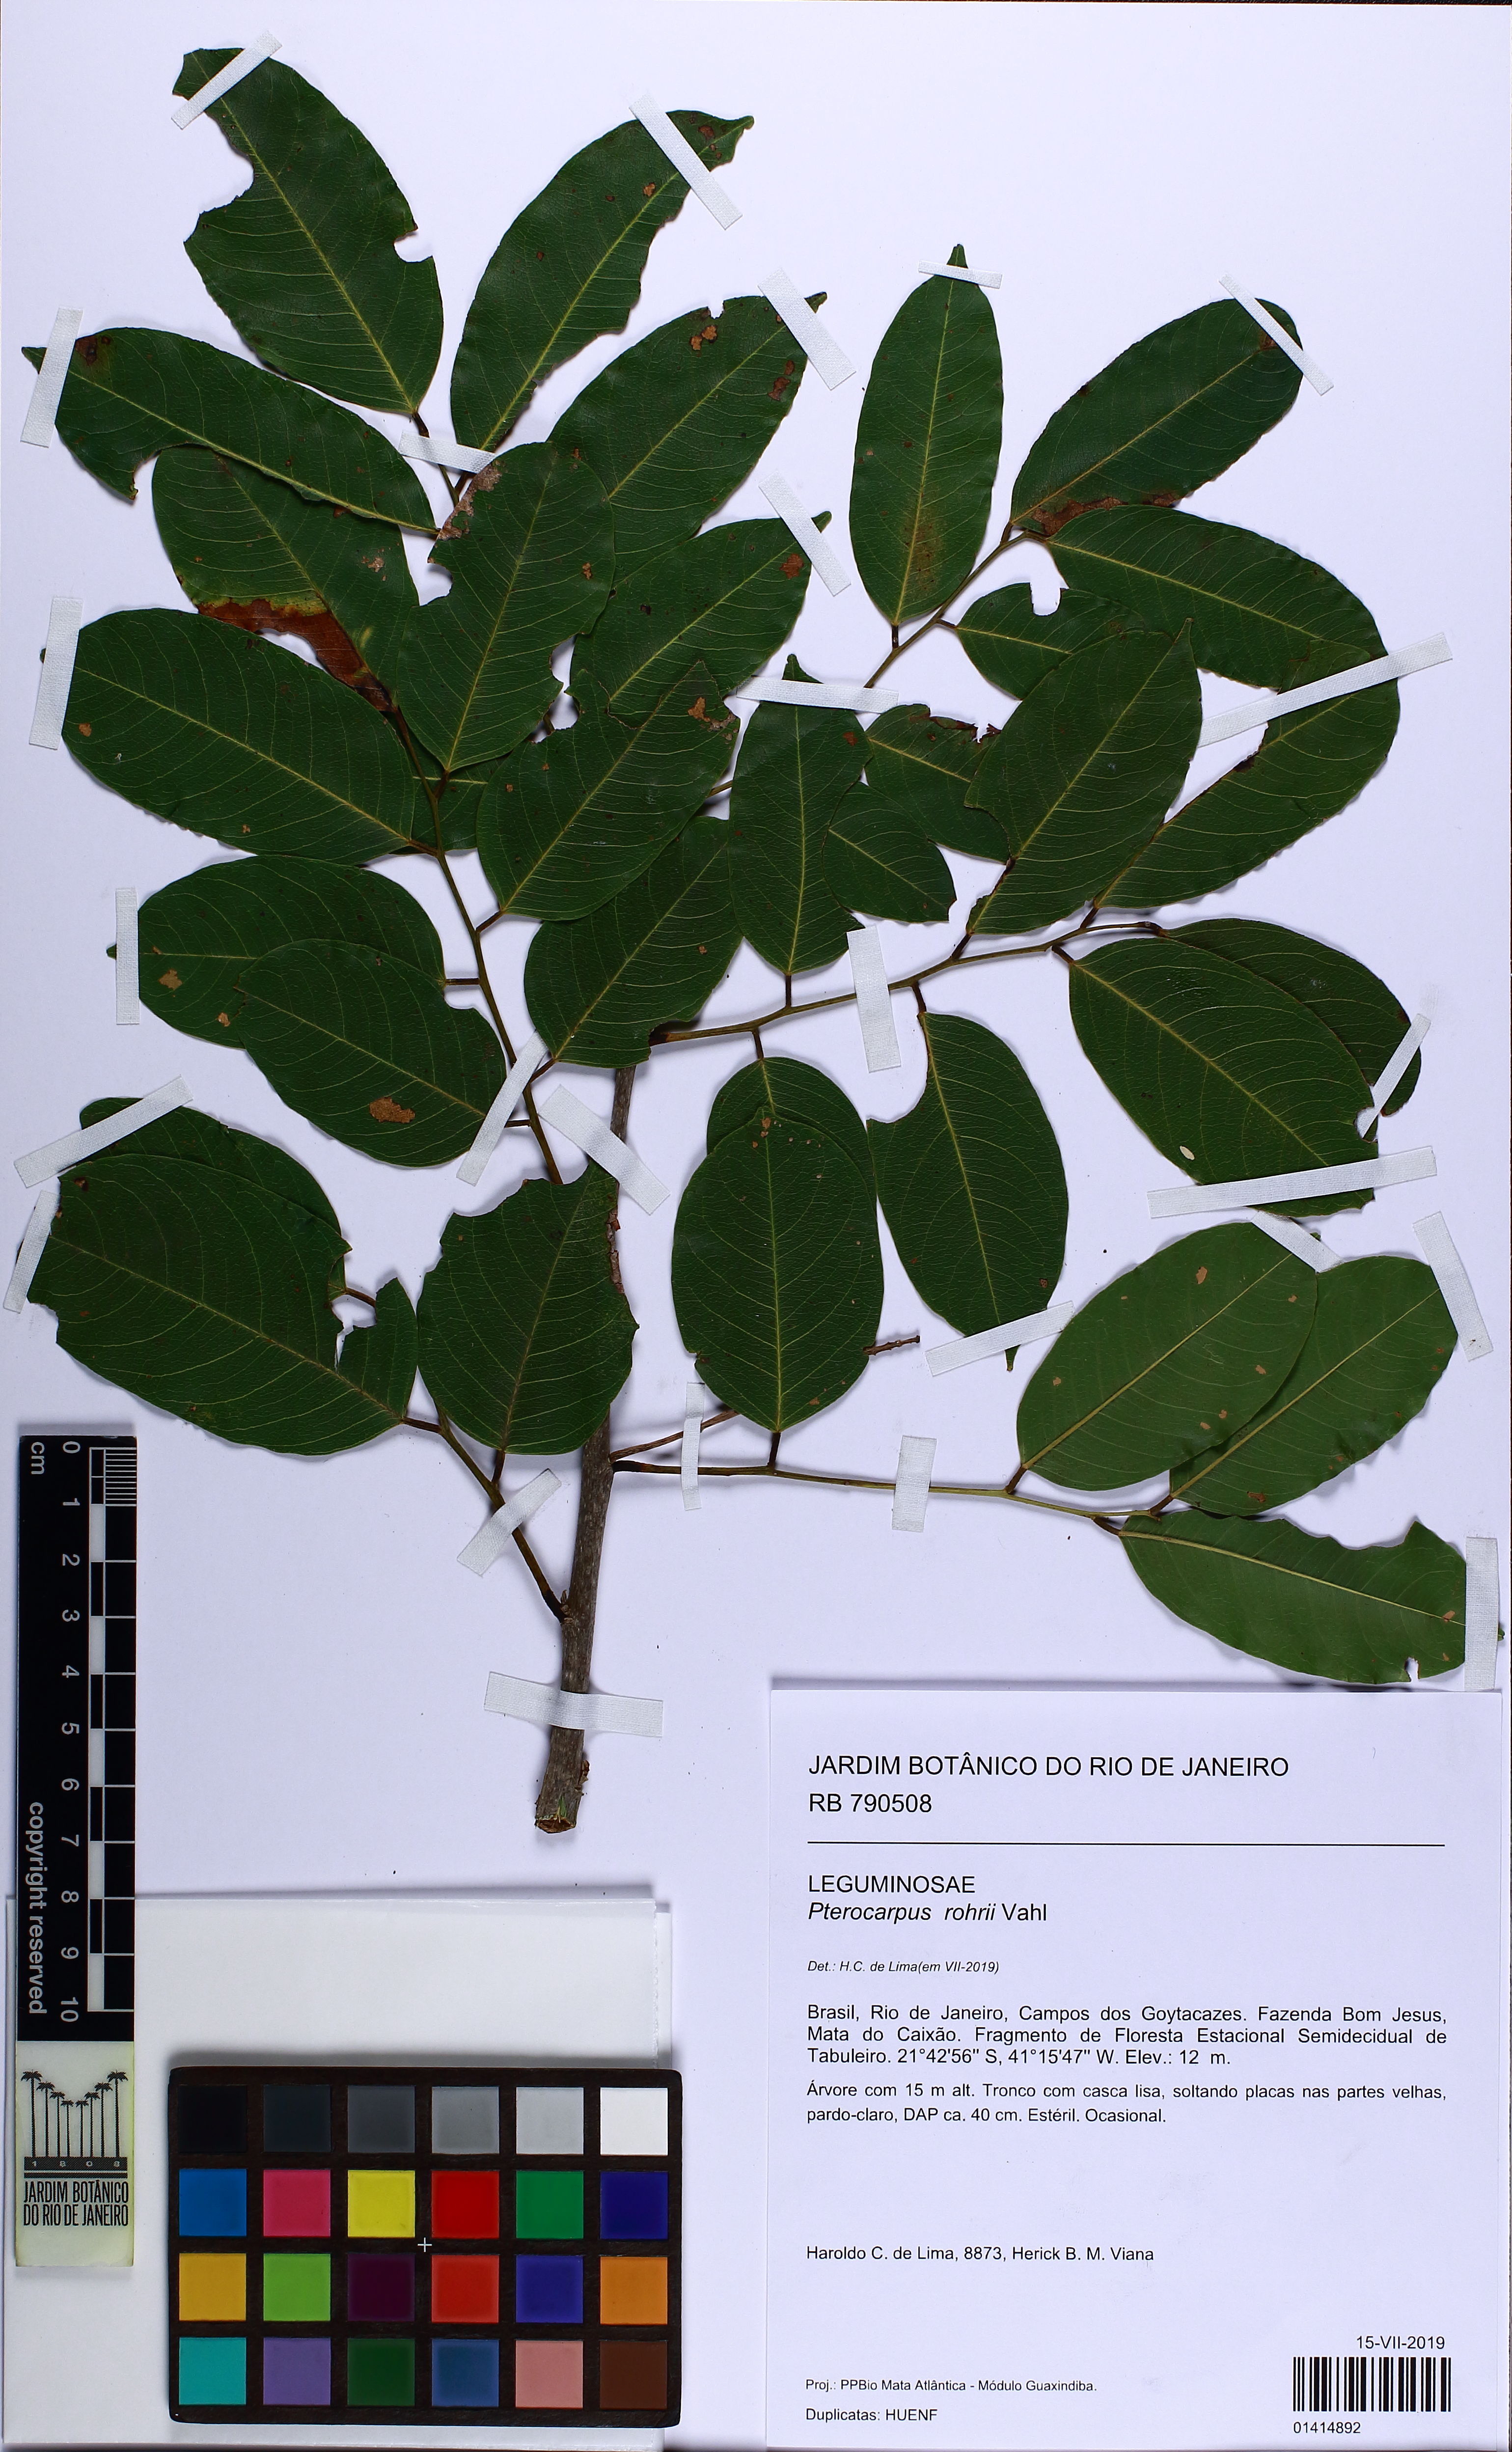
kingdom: Plantae
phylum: Tracheophyta
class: Magnoliopsida
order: Fabales
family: Fabaceae
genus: Pterocarpus
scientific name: Pterocarpus rohrii
